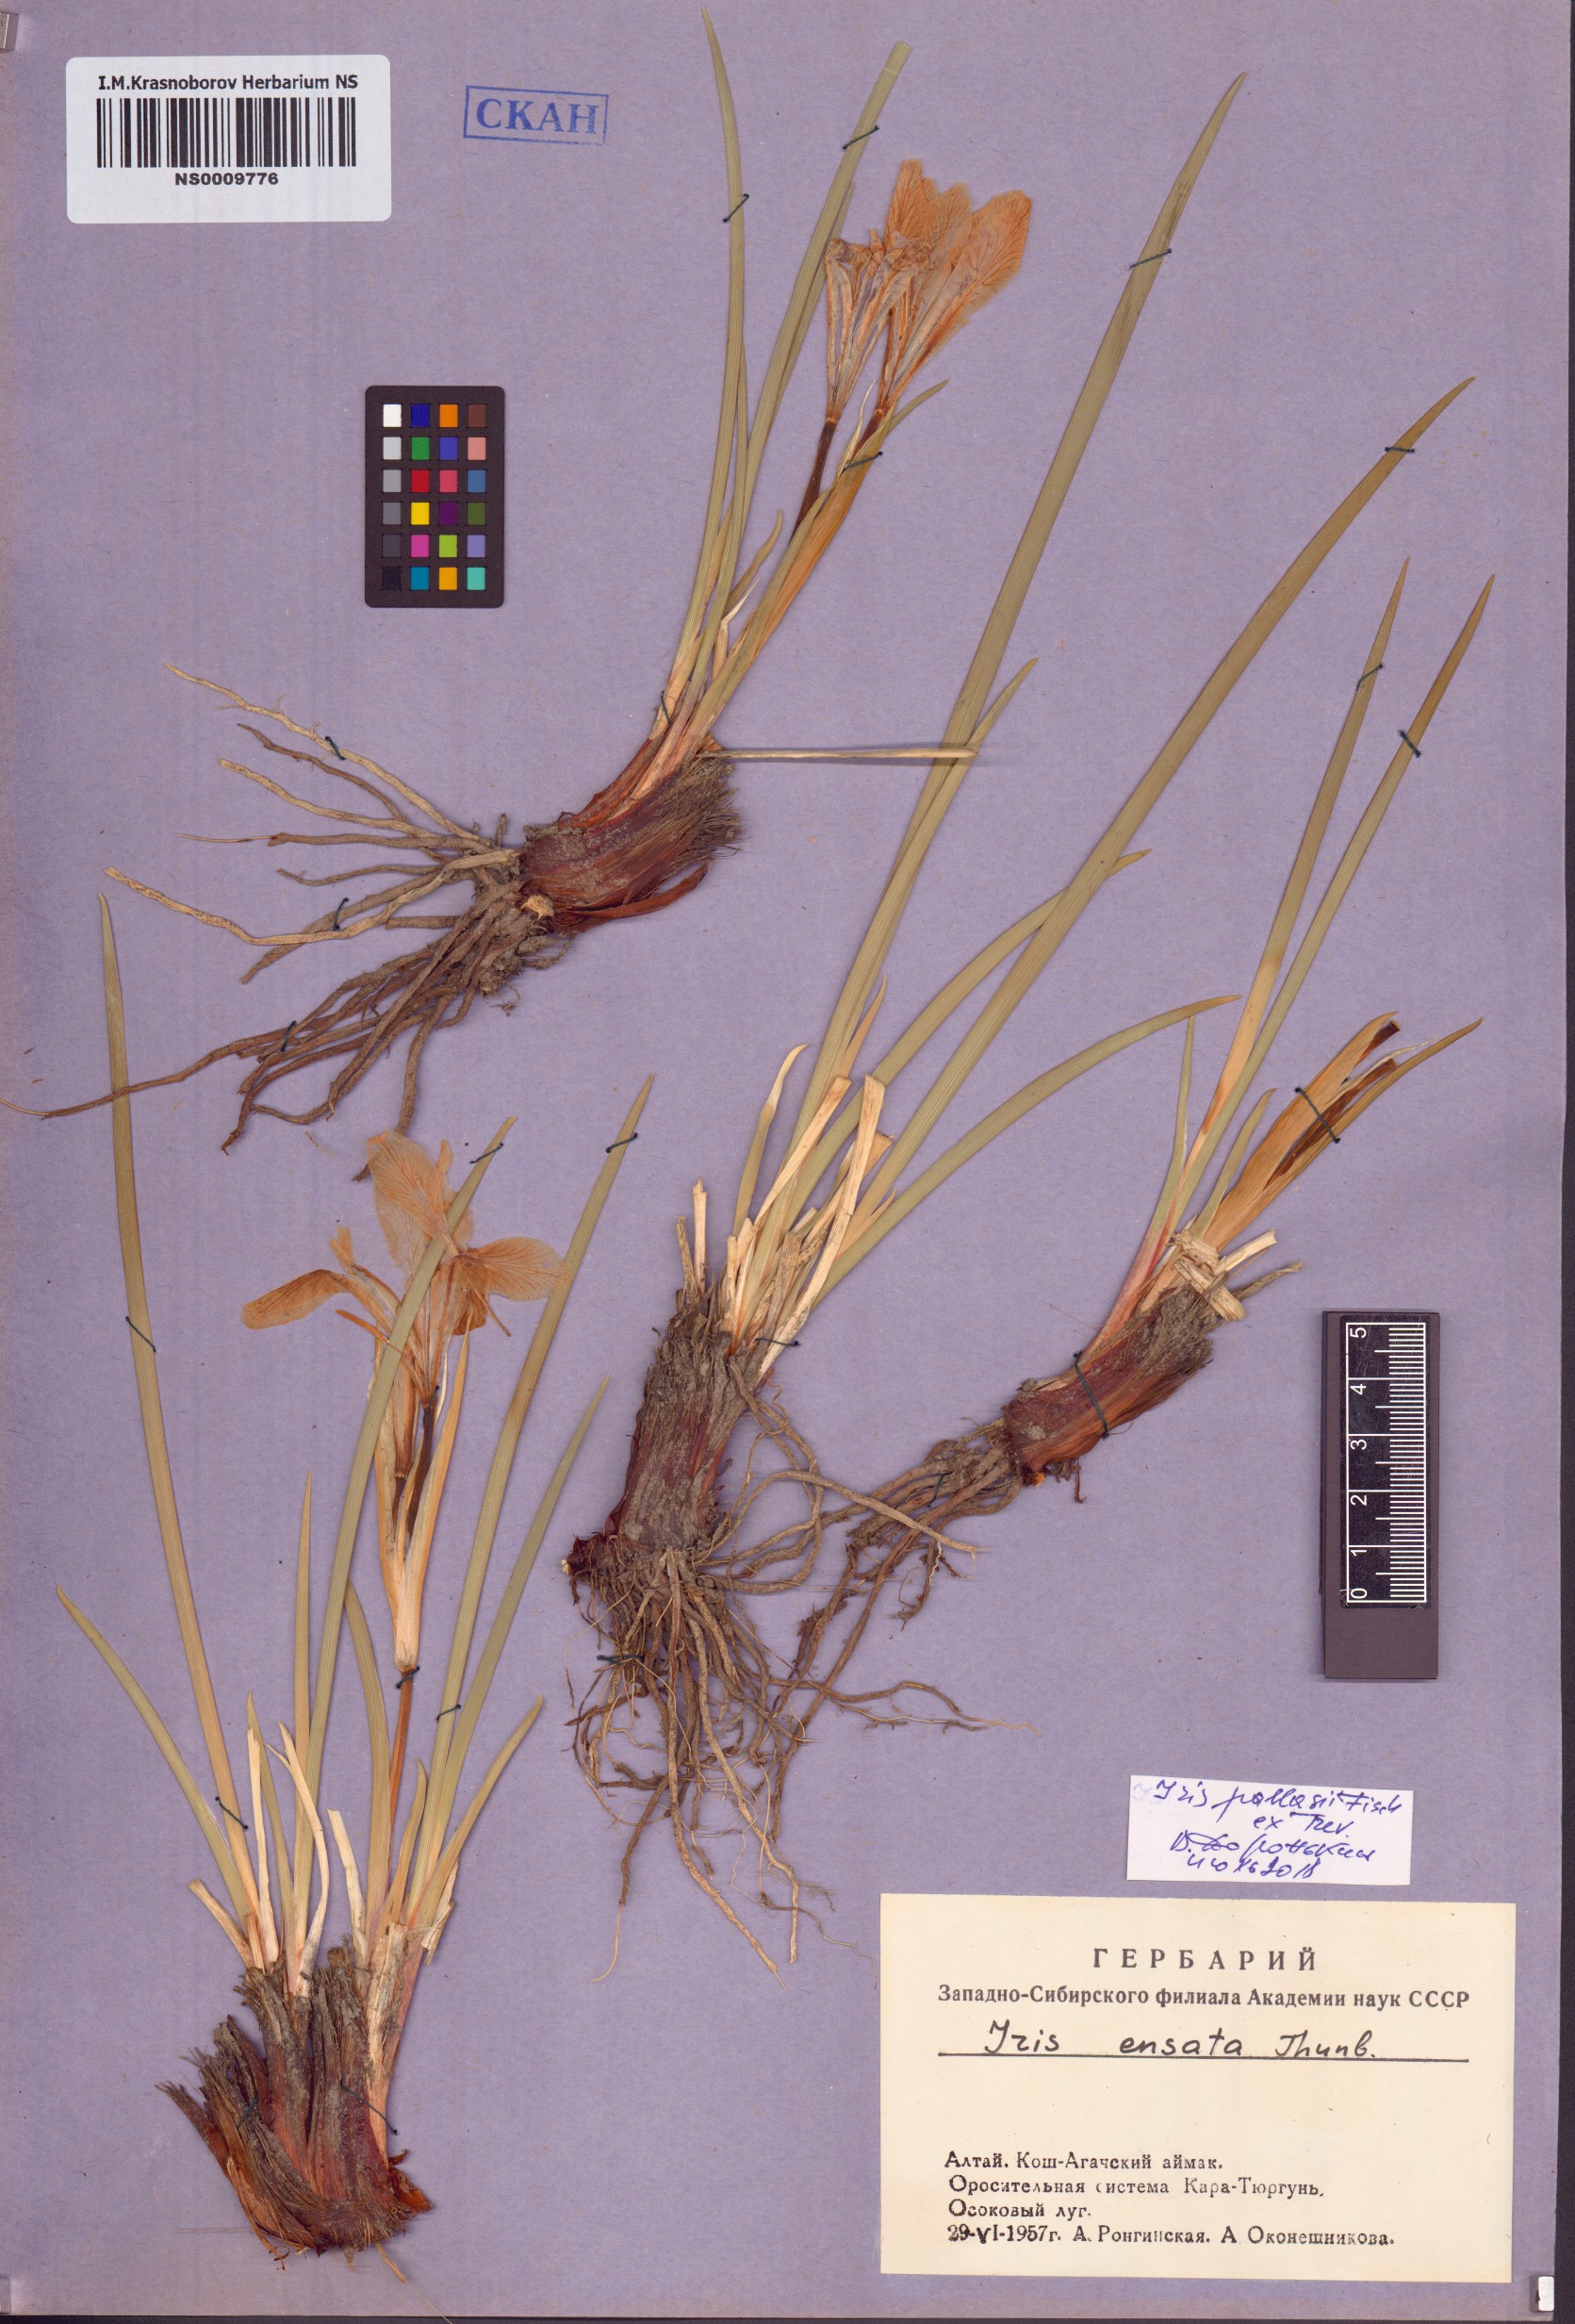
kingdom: Plantae
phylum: Tracheophyta
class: Liliopsida
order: Asparagales
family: Iridaceae
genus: Iris
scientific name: Iris lactea
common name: White-flower chinese iris
